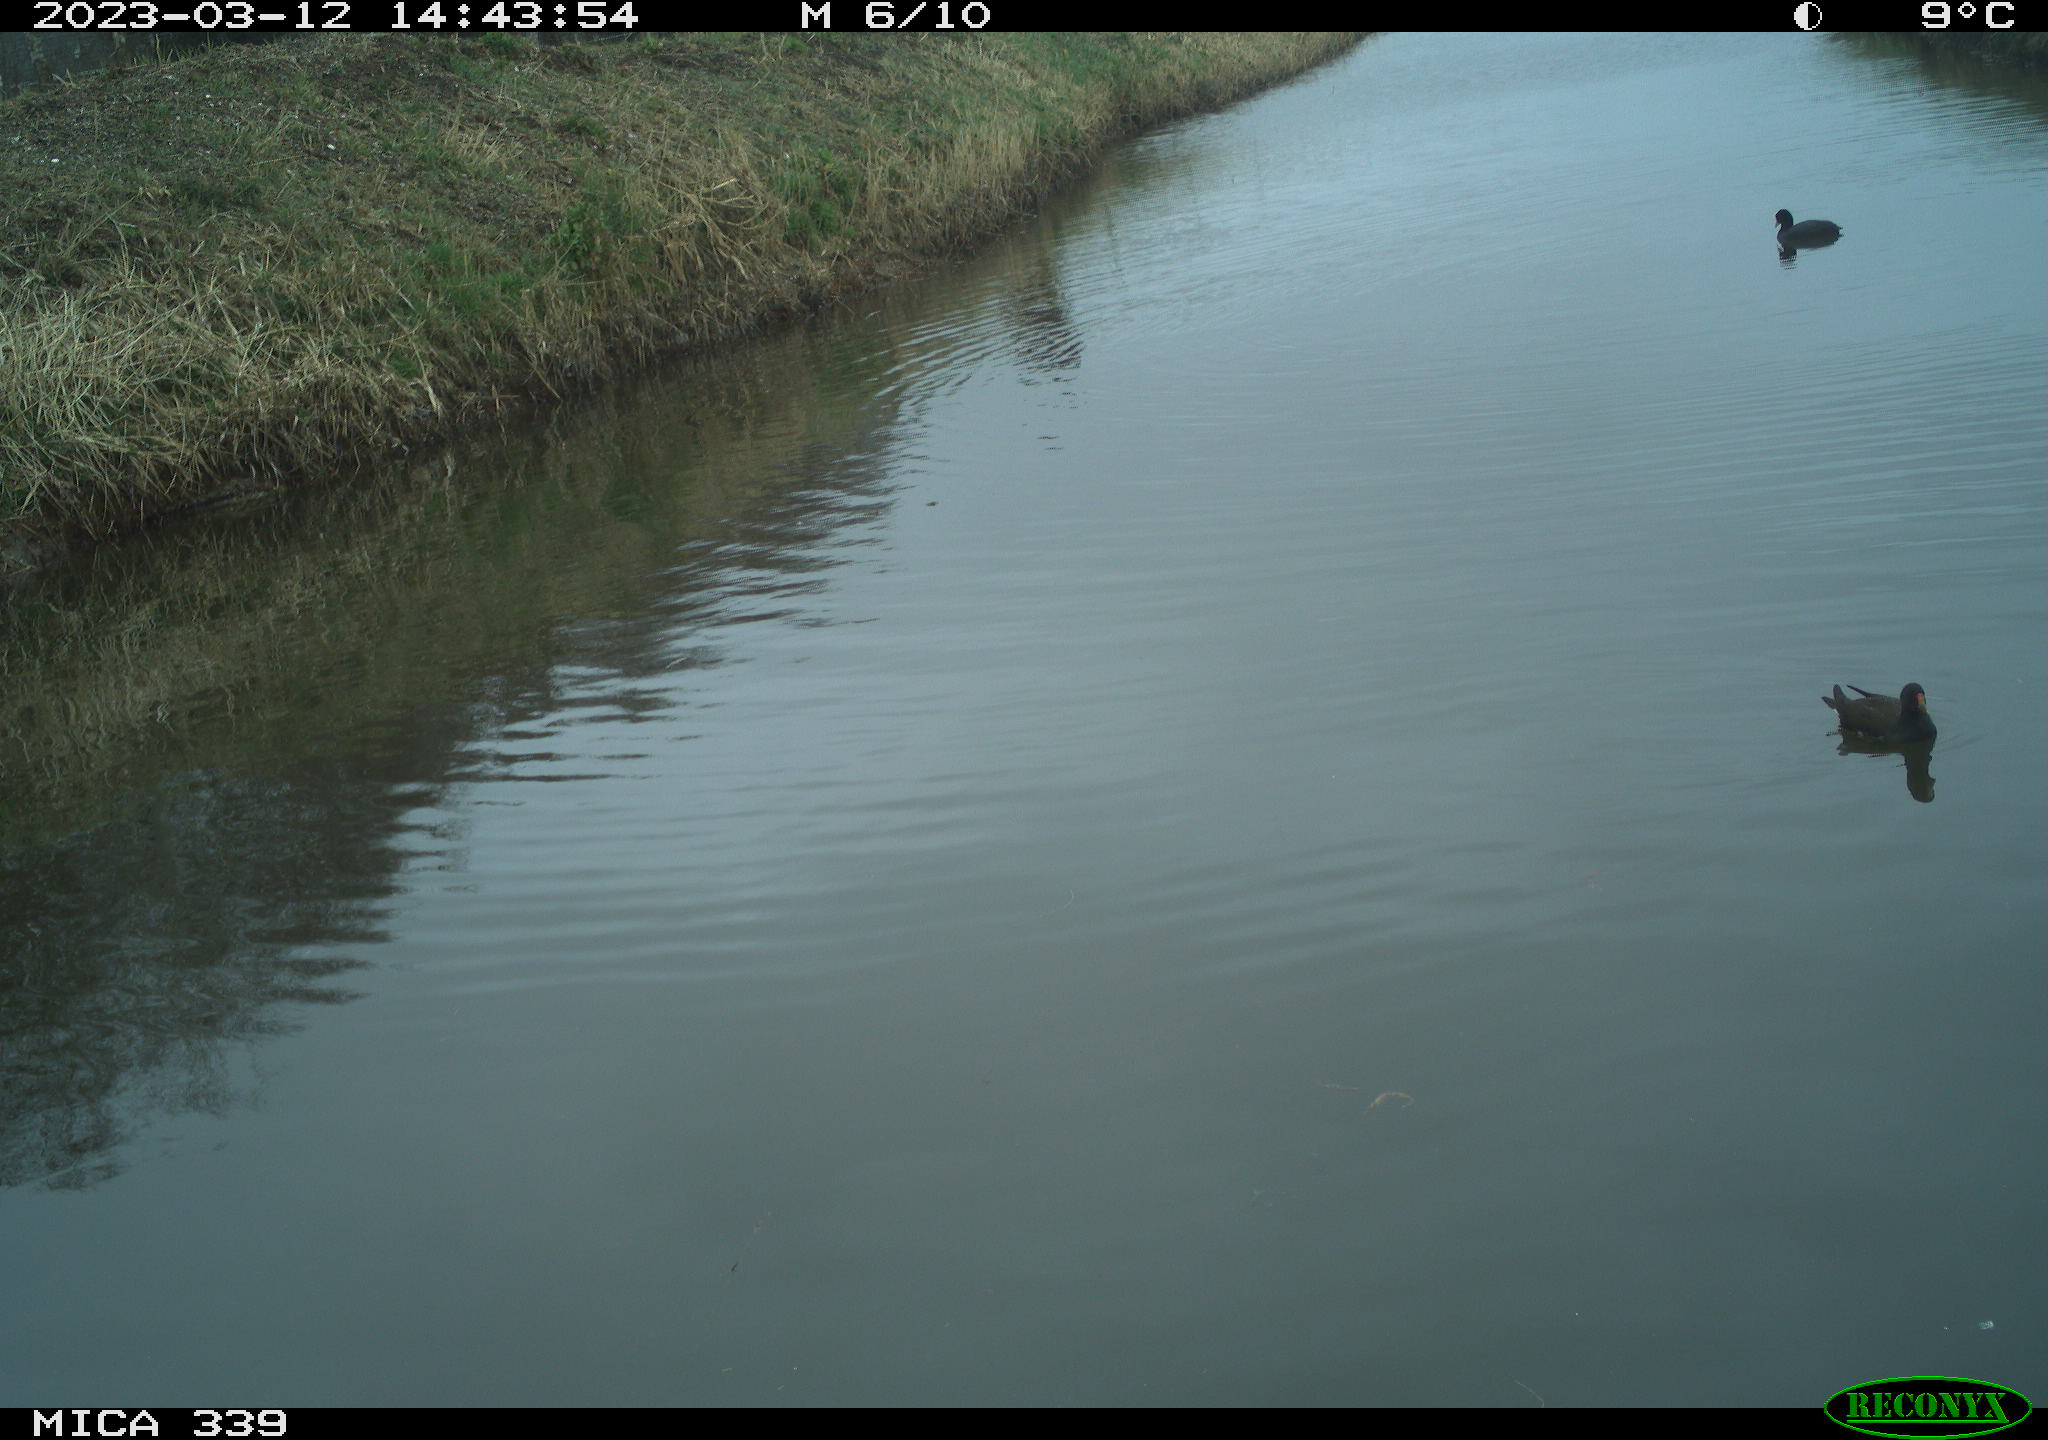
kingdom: Animalia
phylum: Chordata
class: Aves
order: Gruiformes
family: Rallidae
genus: Gallinula
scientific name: Gallinula chloropus
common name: Common moorhen
